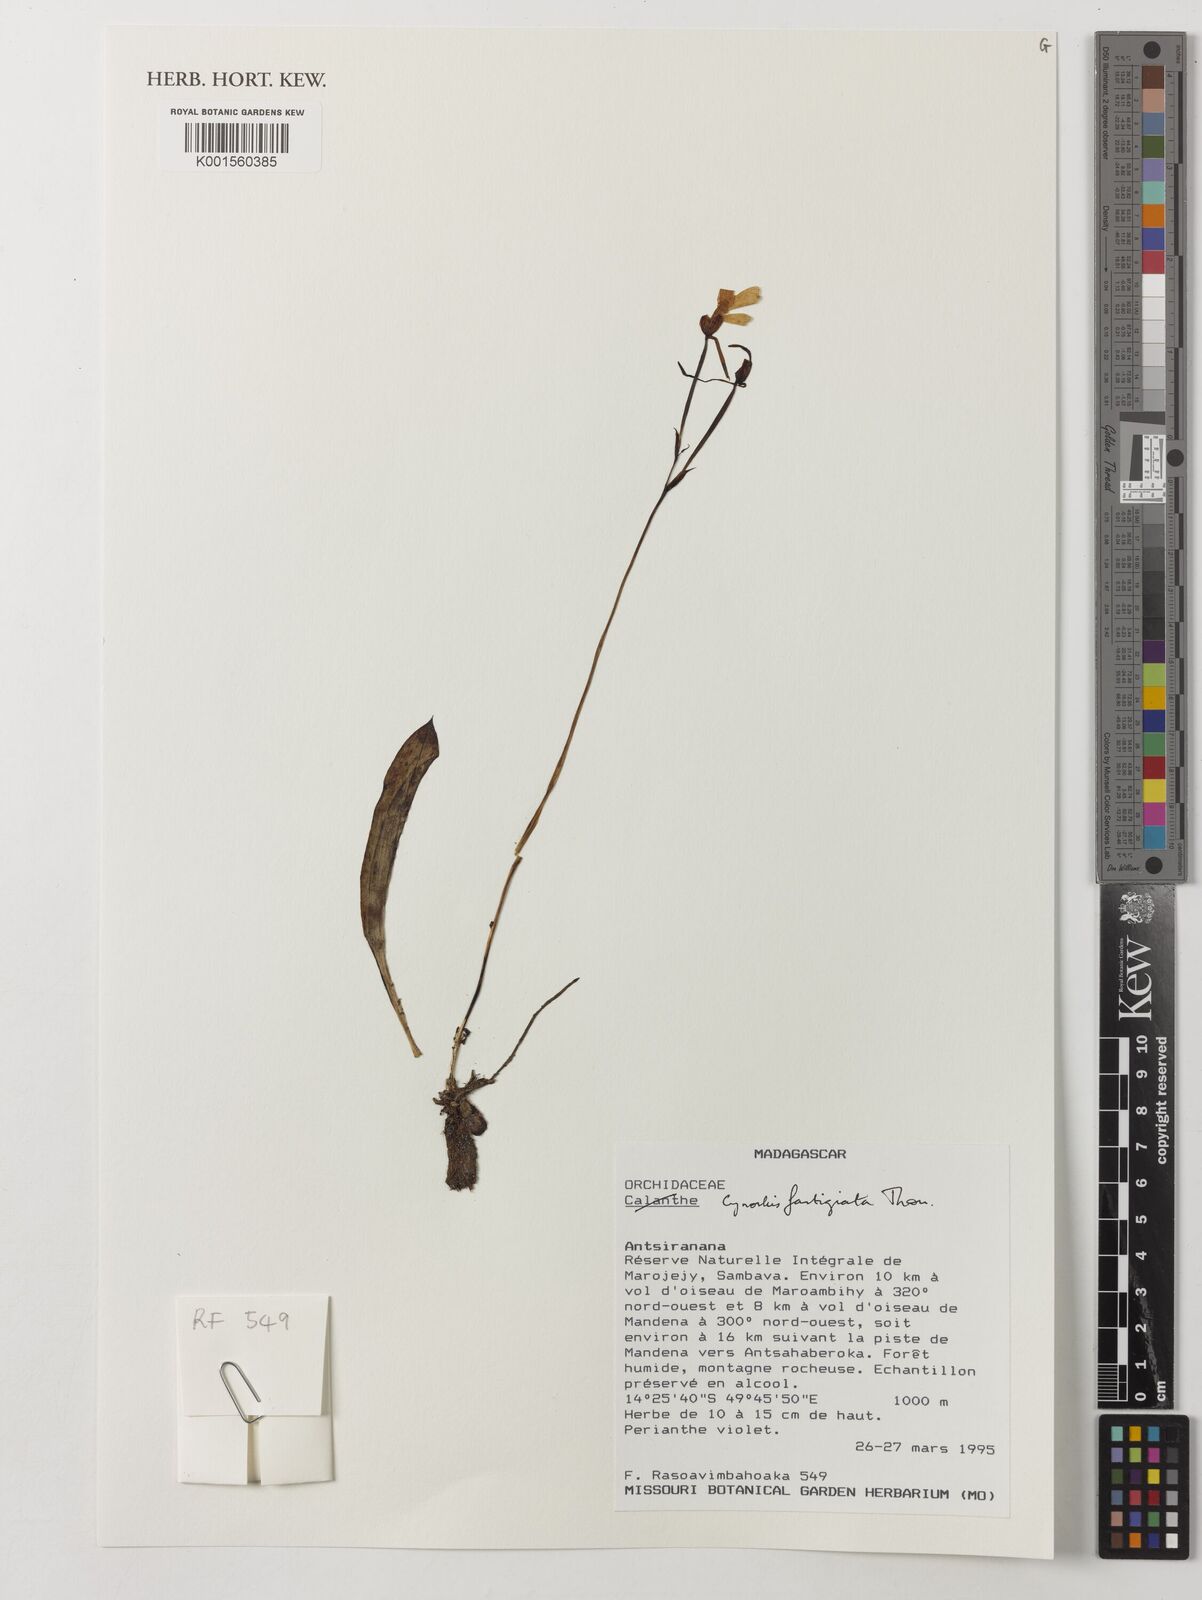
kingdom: Plantae
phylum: Tracheophyta
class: Liliopsida
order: Asparagales
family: Orchidaceae
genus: Cynorkis
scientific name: Cynorkis fastigiata
